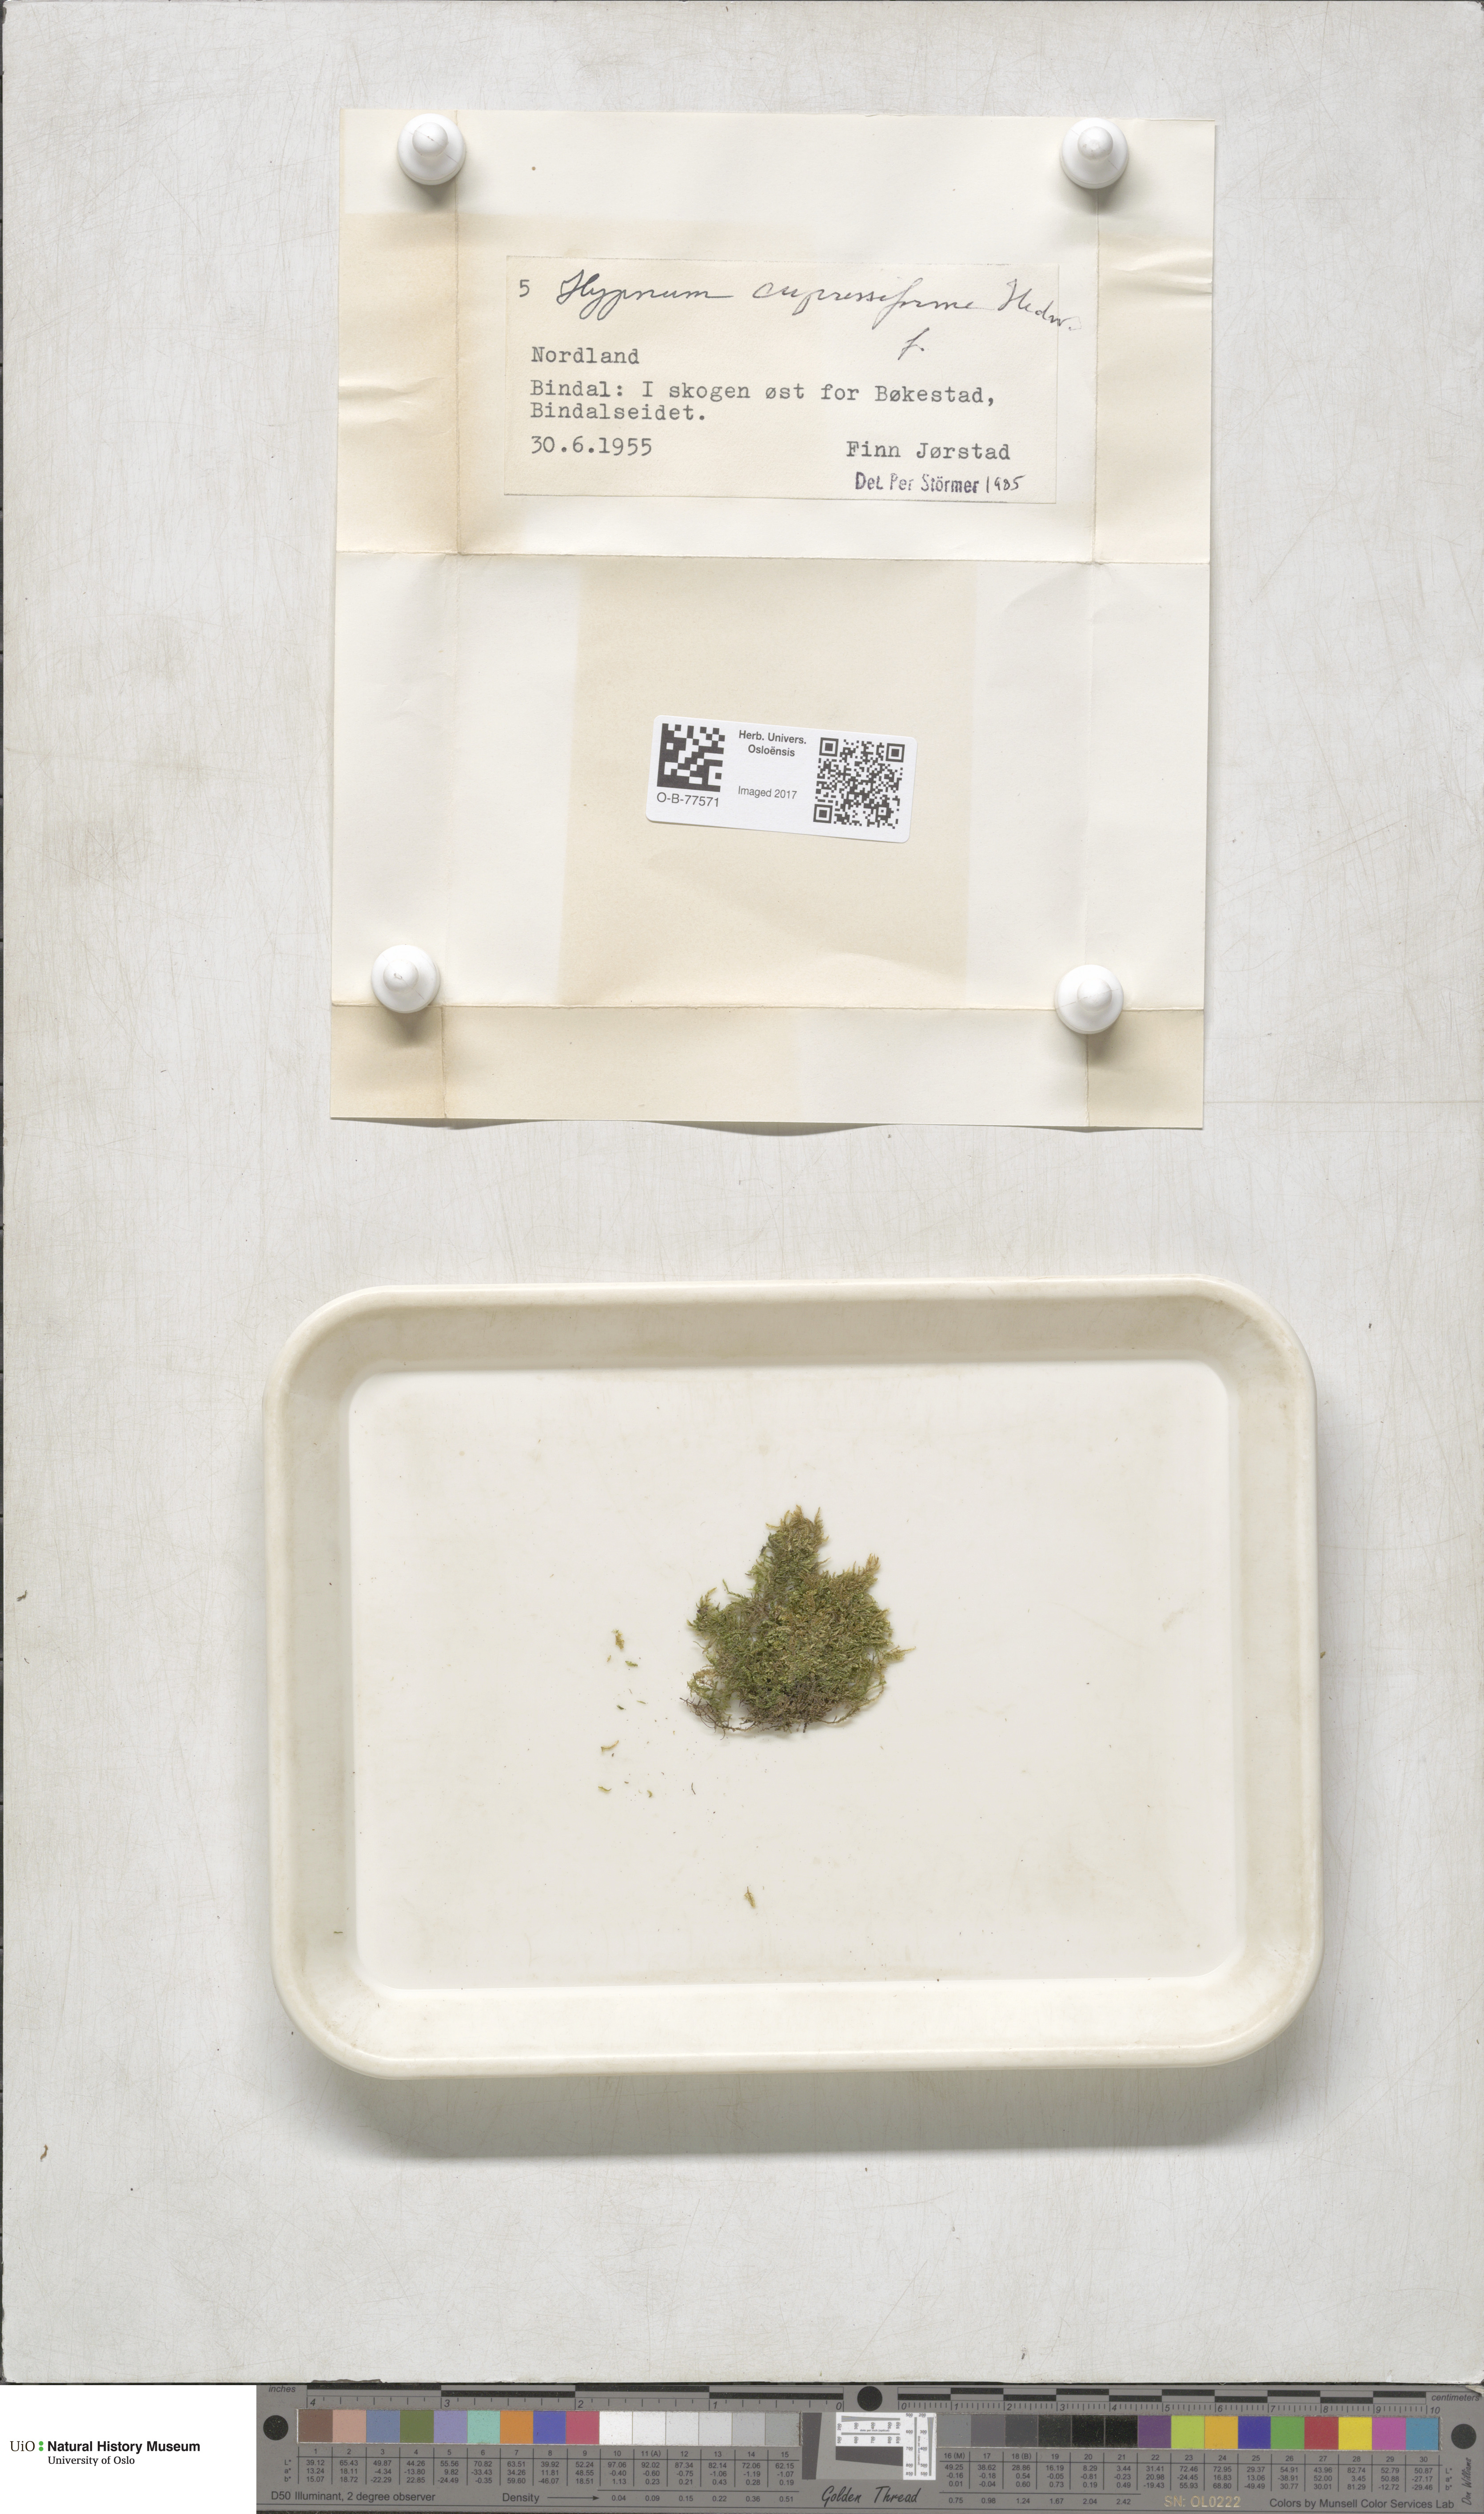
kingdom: Plantae
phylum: Bryophyta
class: Bryopsida
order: Hypnales
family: Hypnaceae
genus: Hypnum
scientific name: Hypnum cupressiforme
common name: Cypress-leaved plait-moss
